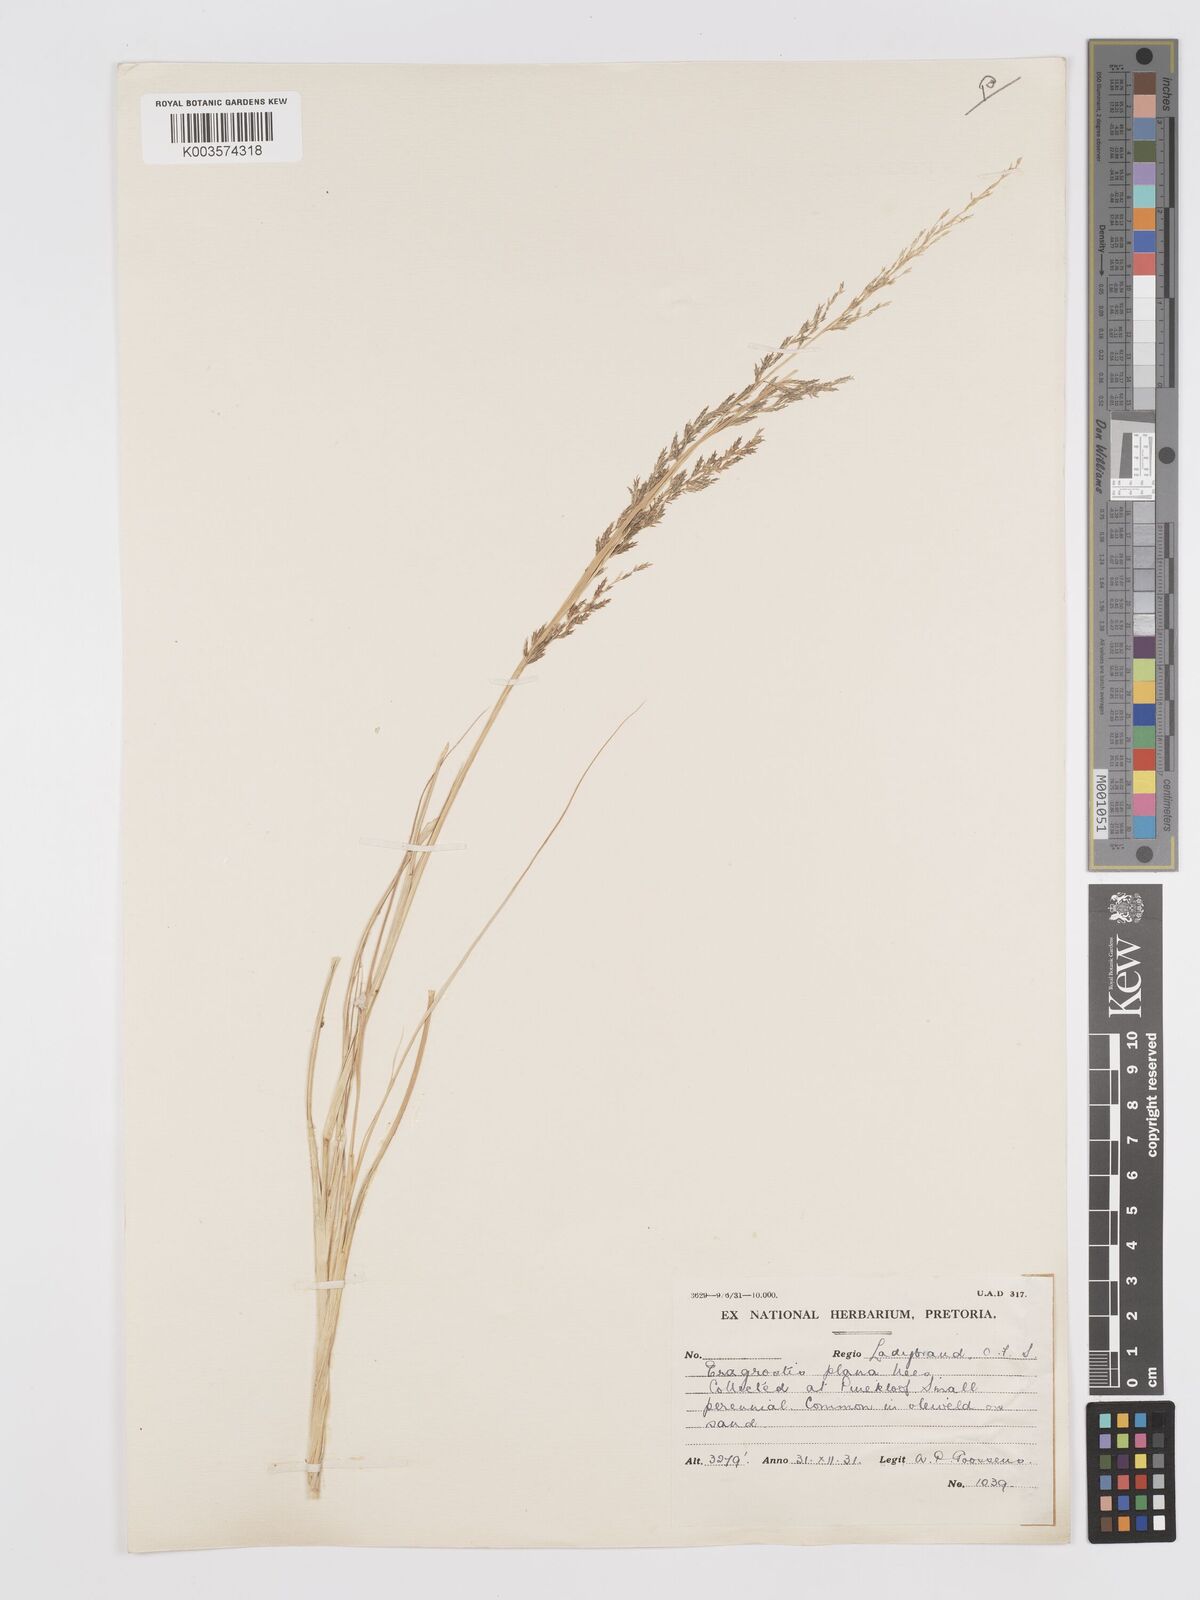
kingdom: Plantae
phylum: Tracheophyta
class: Liliopsida
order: Poales
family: Poaceae
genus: Eragrostis
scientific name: Eragrostis plana
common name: South african lovegrass
